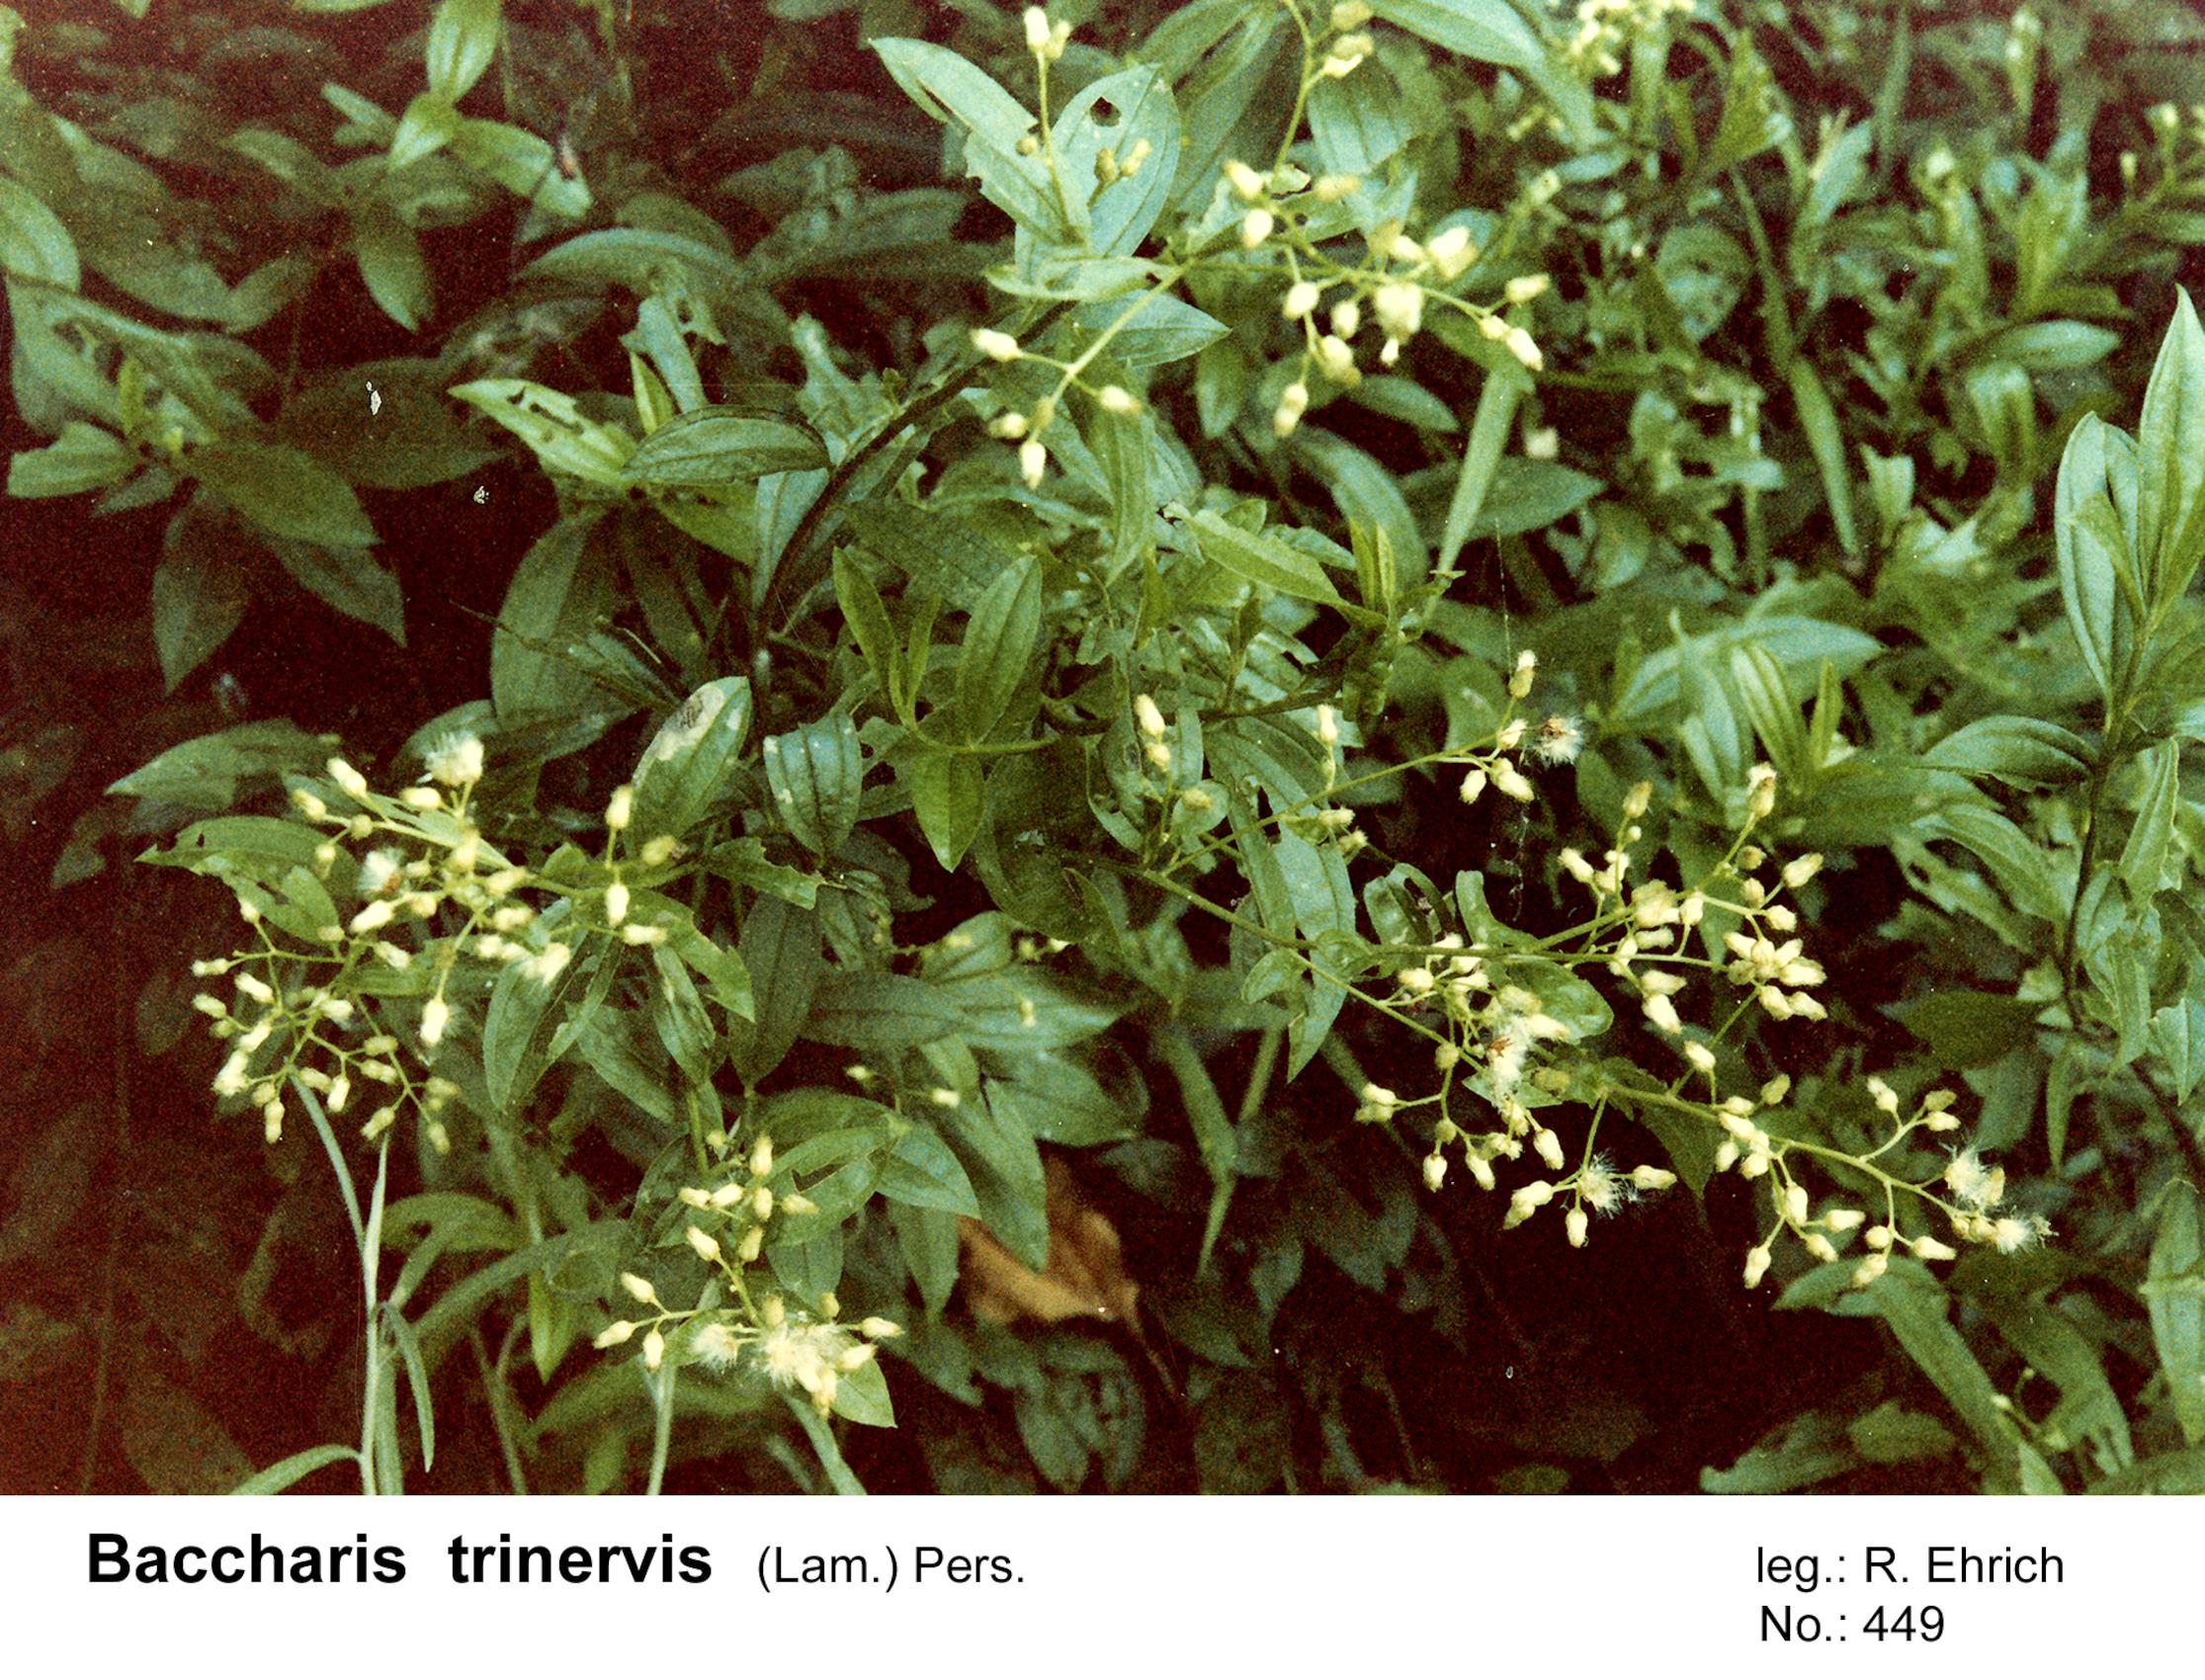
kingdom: Plantae
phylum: Tracheophyta
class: Magnoliopsida
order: Asterales
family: Asteraceae
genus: Baccharis
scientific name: Baccharis trinervis
